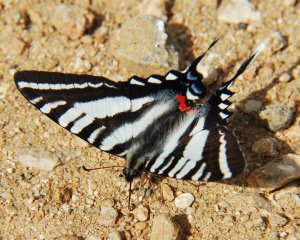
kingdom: Animalia
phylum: Arthropoda
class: Insecta
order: Lepidoptera
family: Papilionidae
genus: Protographium
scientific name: Protographium marcellus
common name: Zebra Swallowtail
